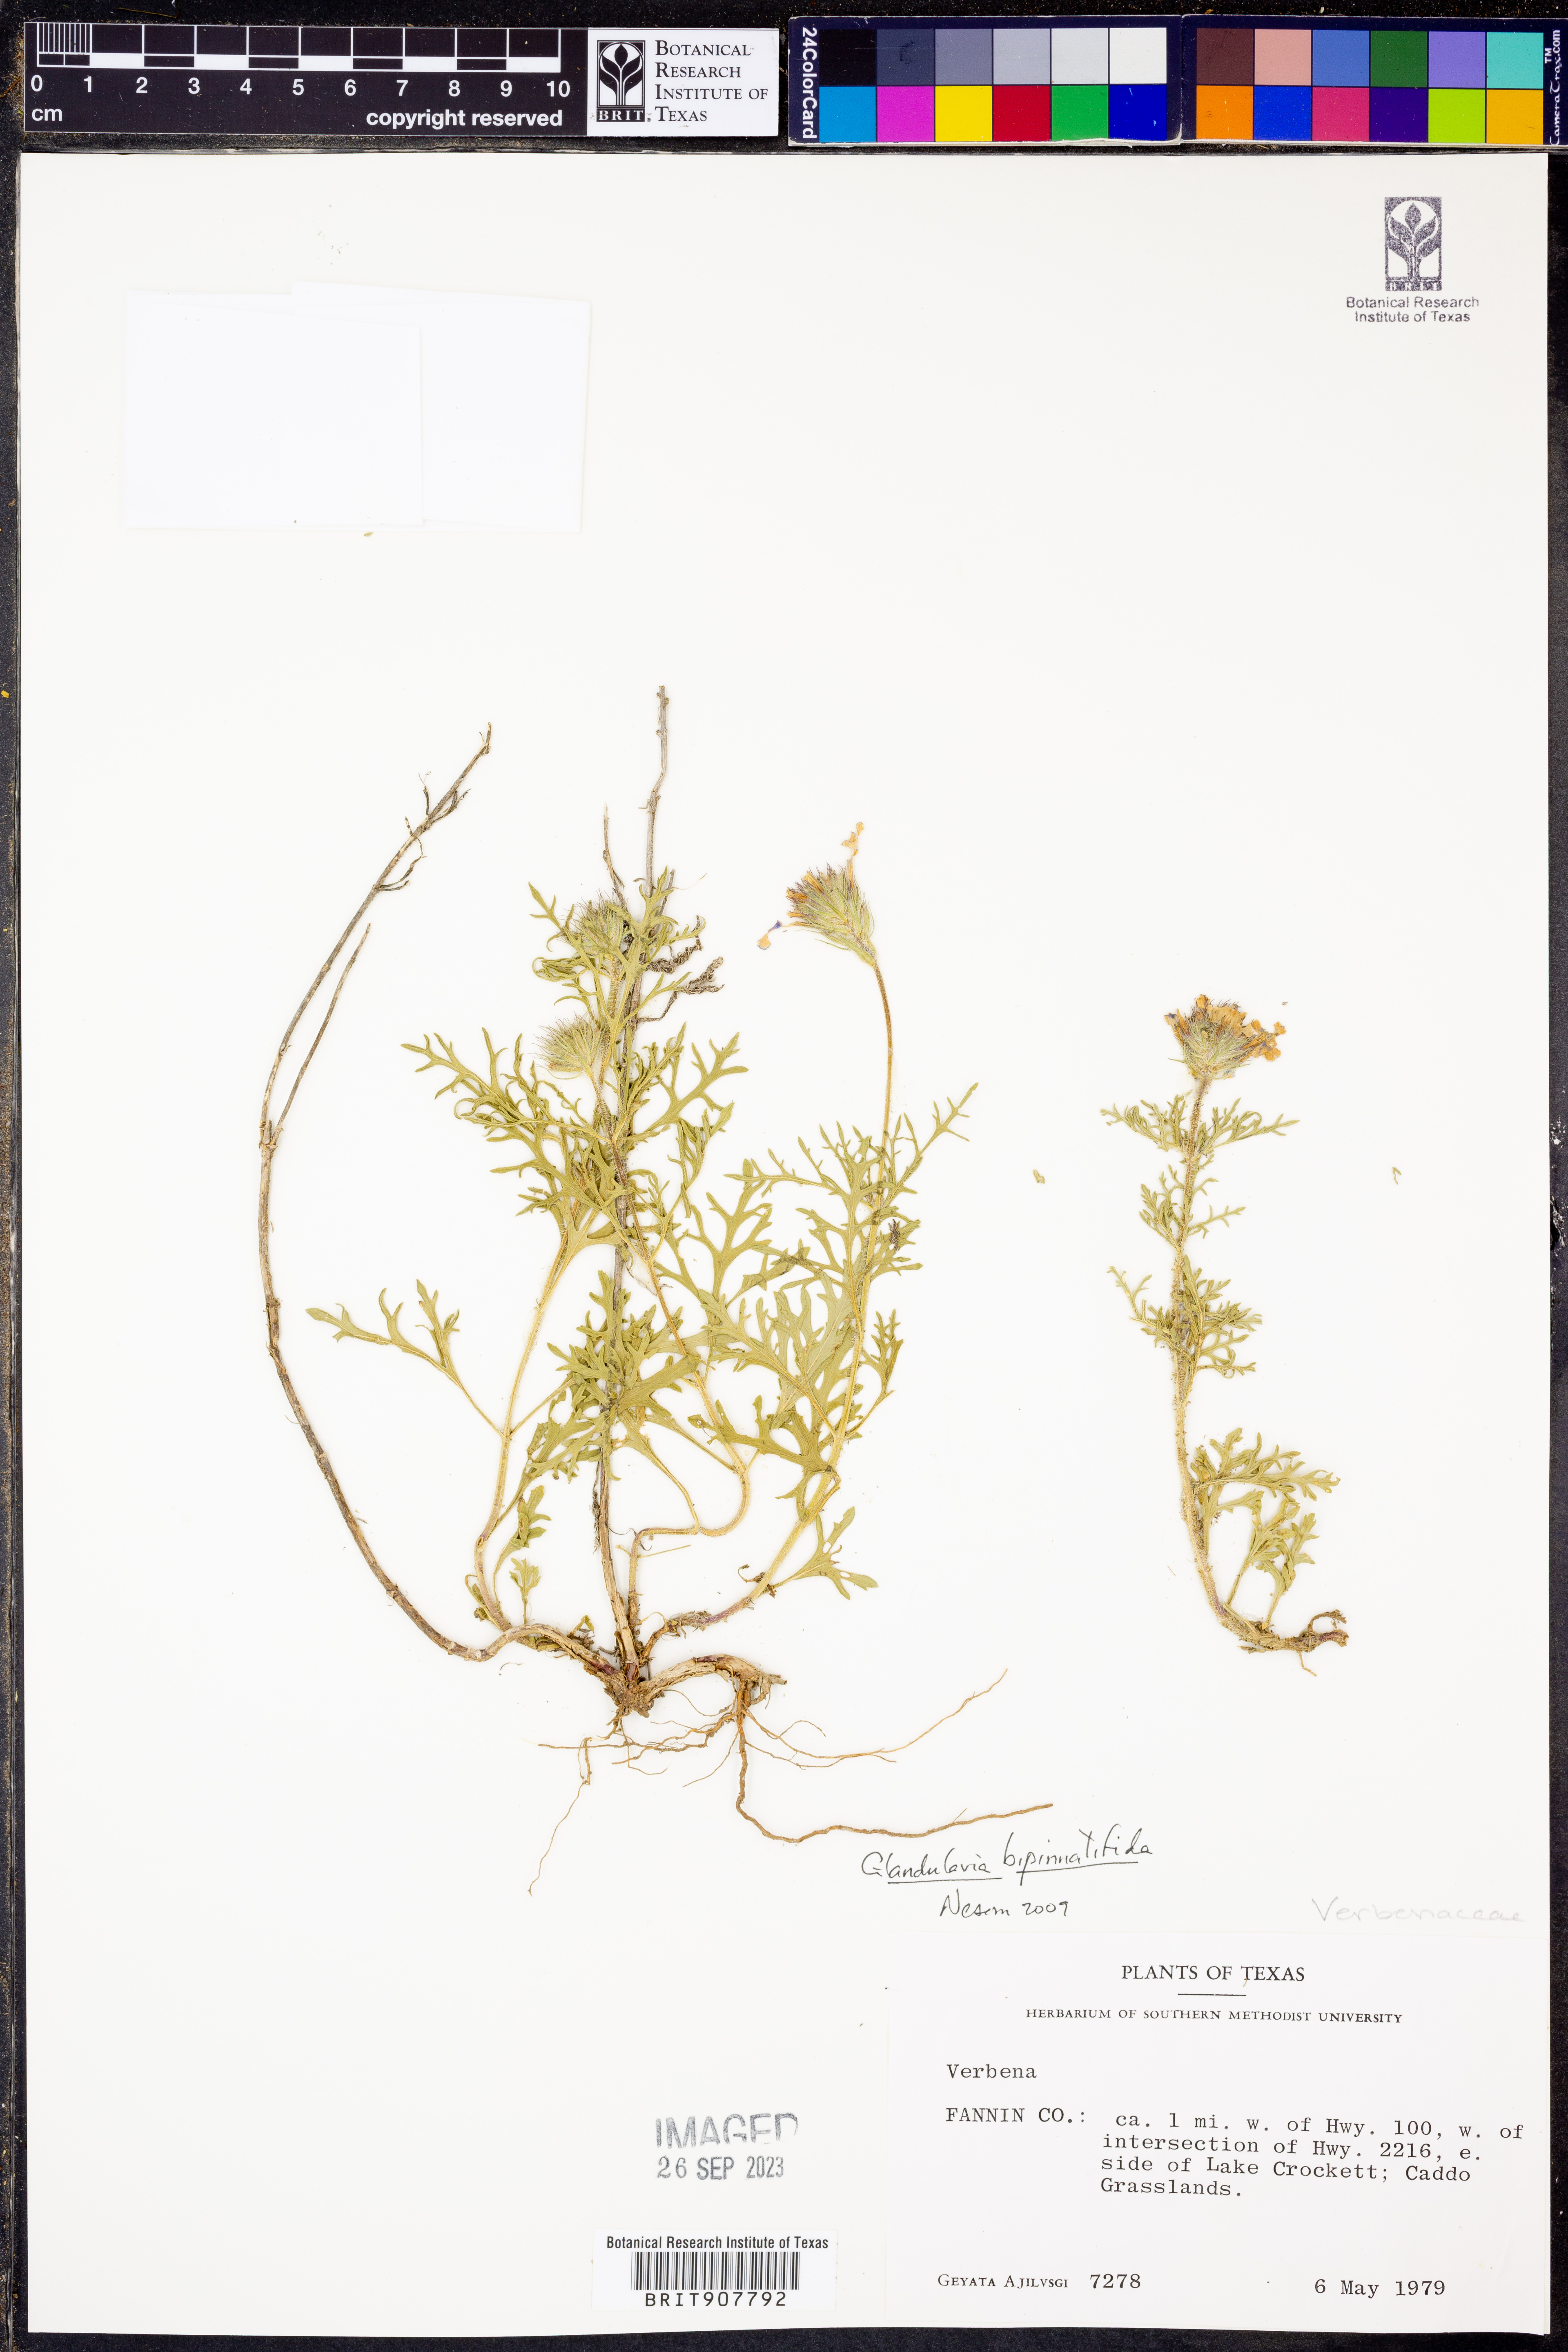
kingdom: Plantae
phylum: Tracheophyta
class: Magnoliopsida
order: Lamiales
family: Verbenaceae
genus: Verbena
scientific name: Verbena bipinnatifida
